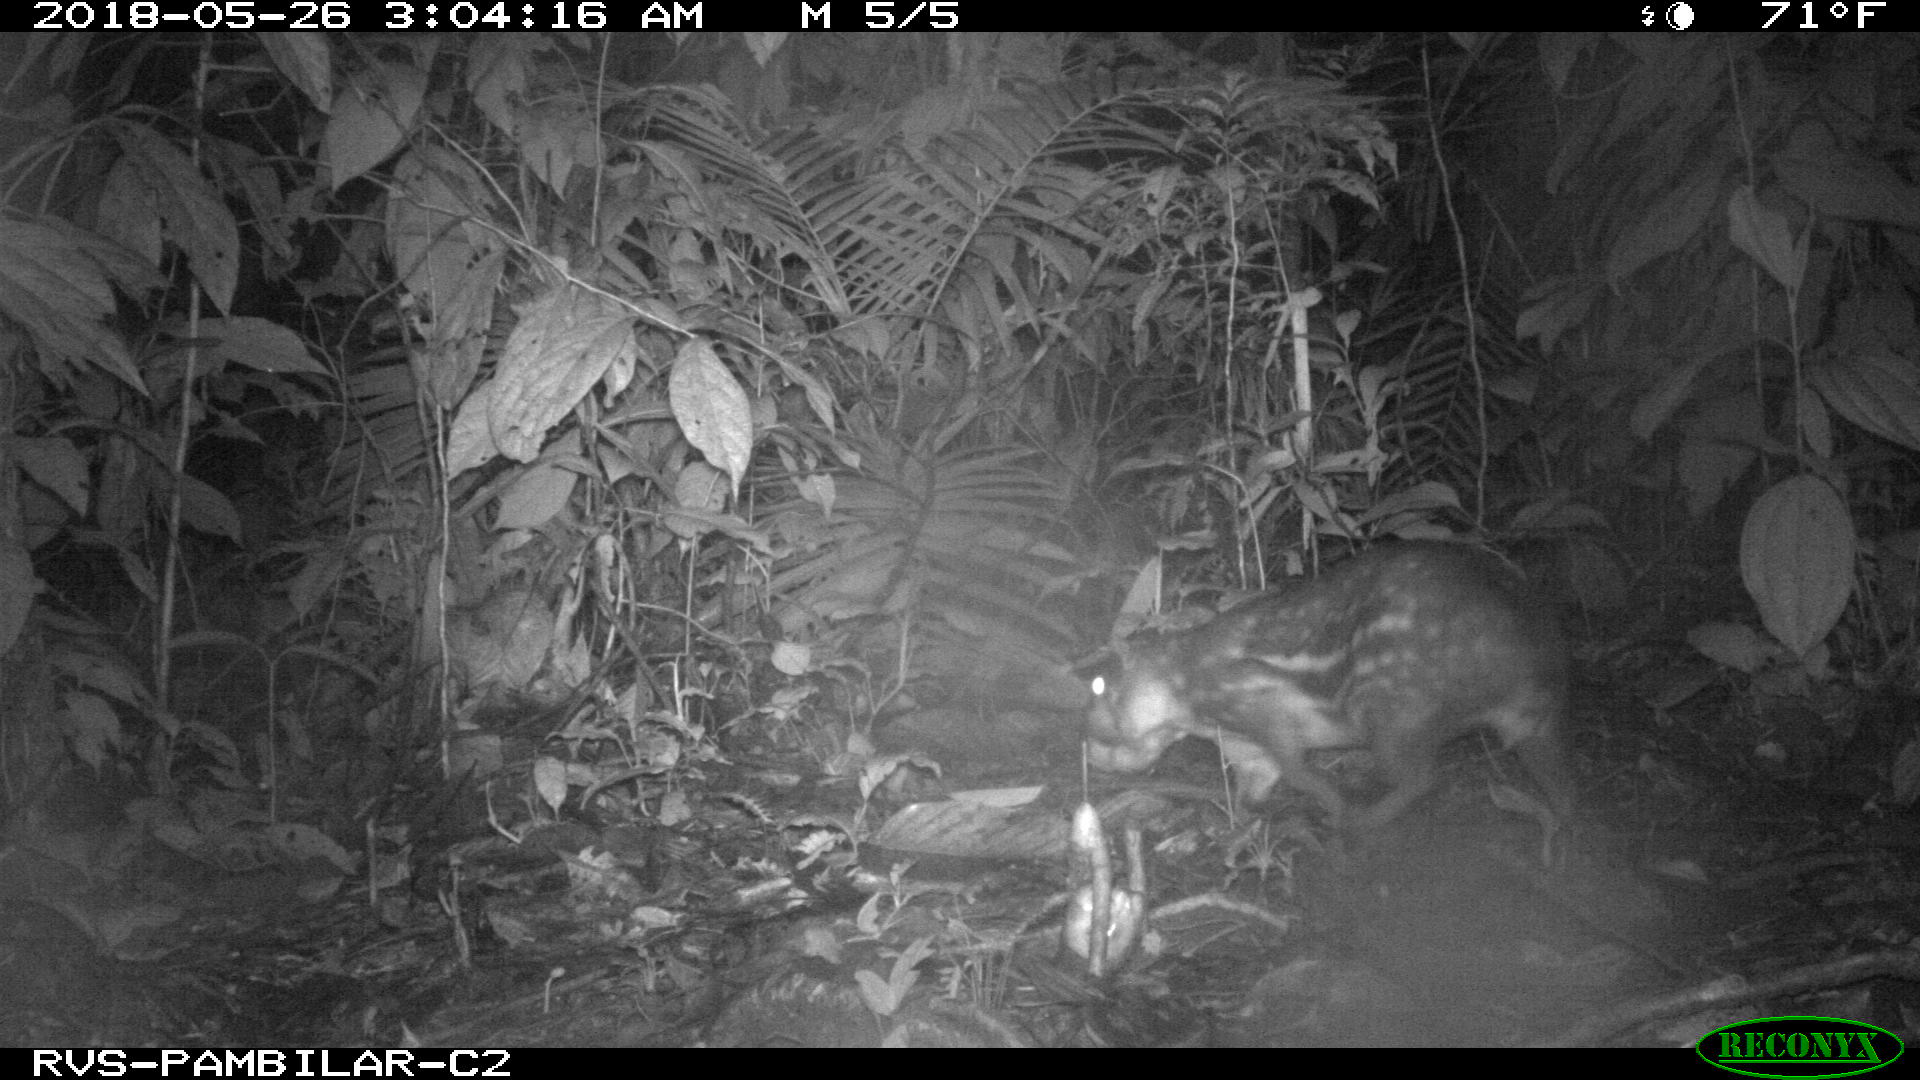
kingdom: Animalia
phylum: Chordata
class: Mammalia
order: Rodentia
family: Cuniculidae
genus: Cuniculus
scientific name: Cuniculus paca
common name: Lowland paca
